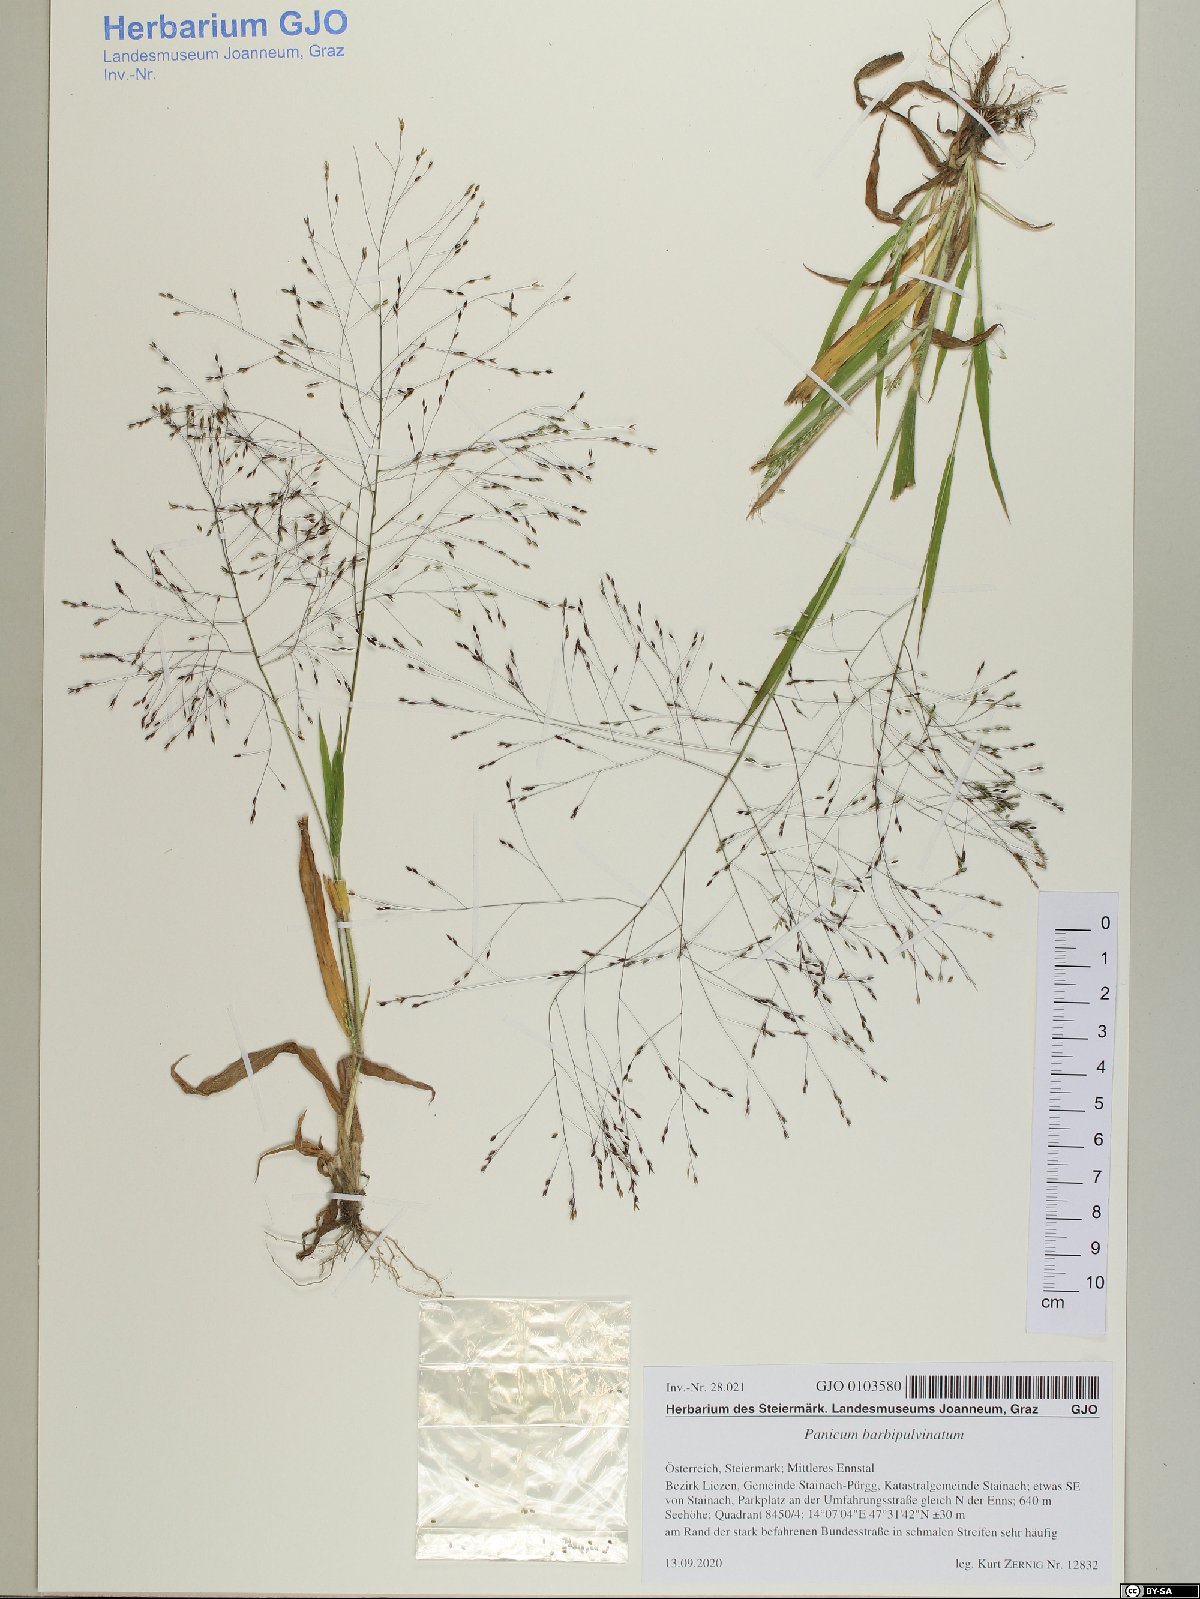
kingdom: Plantae
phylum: Tracheophyta
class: Liliopsida
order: Poales
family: Poaceae
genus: Panicum
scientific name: Panicum capillare
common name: Witch-grass
